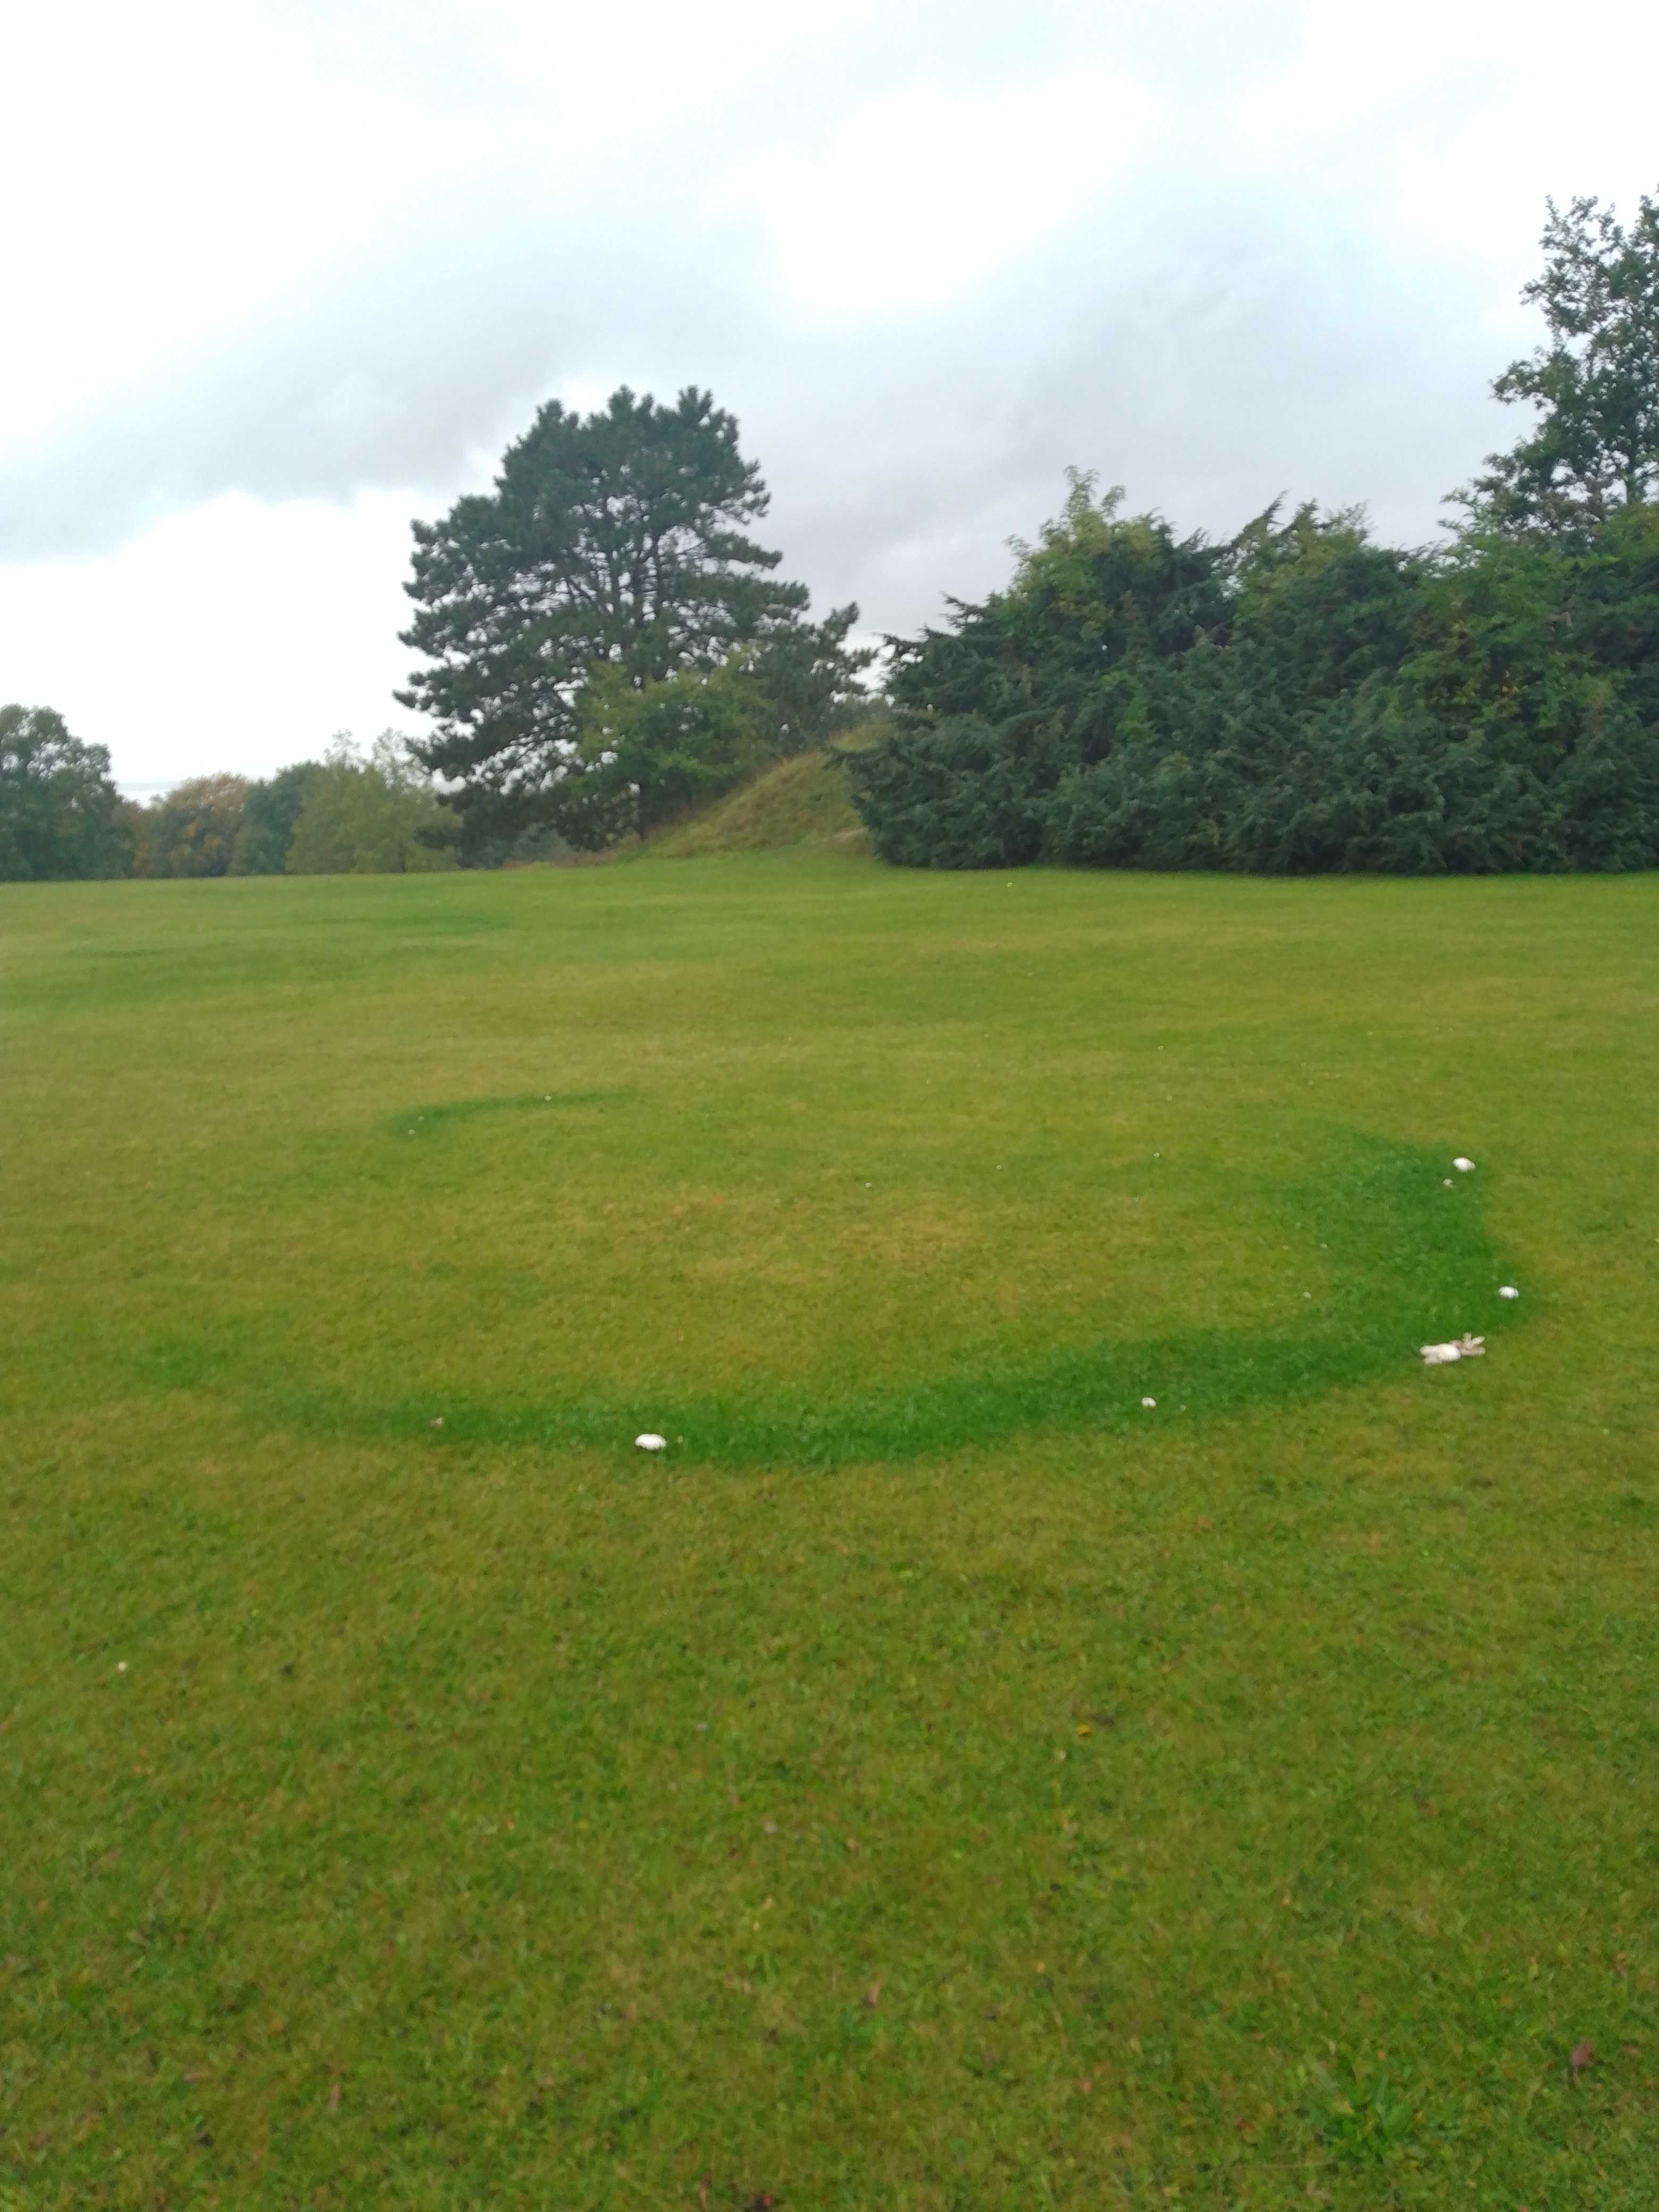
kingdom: Fungi
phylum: Basidiomycota
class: Agaricomycetes
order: Agaricales
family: Agaricaceae
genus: Agaricus
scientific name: Agaricus
